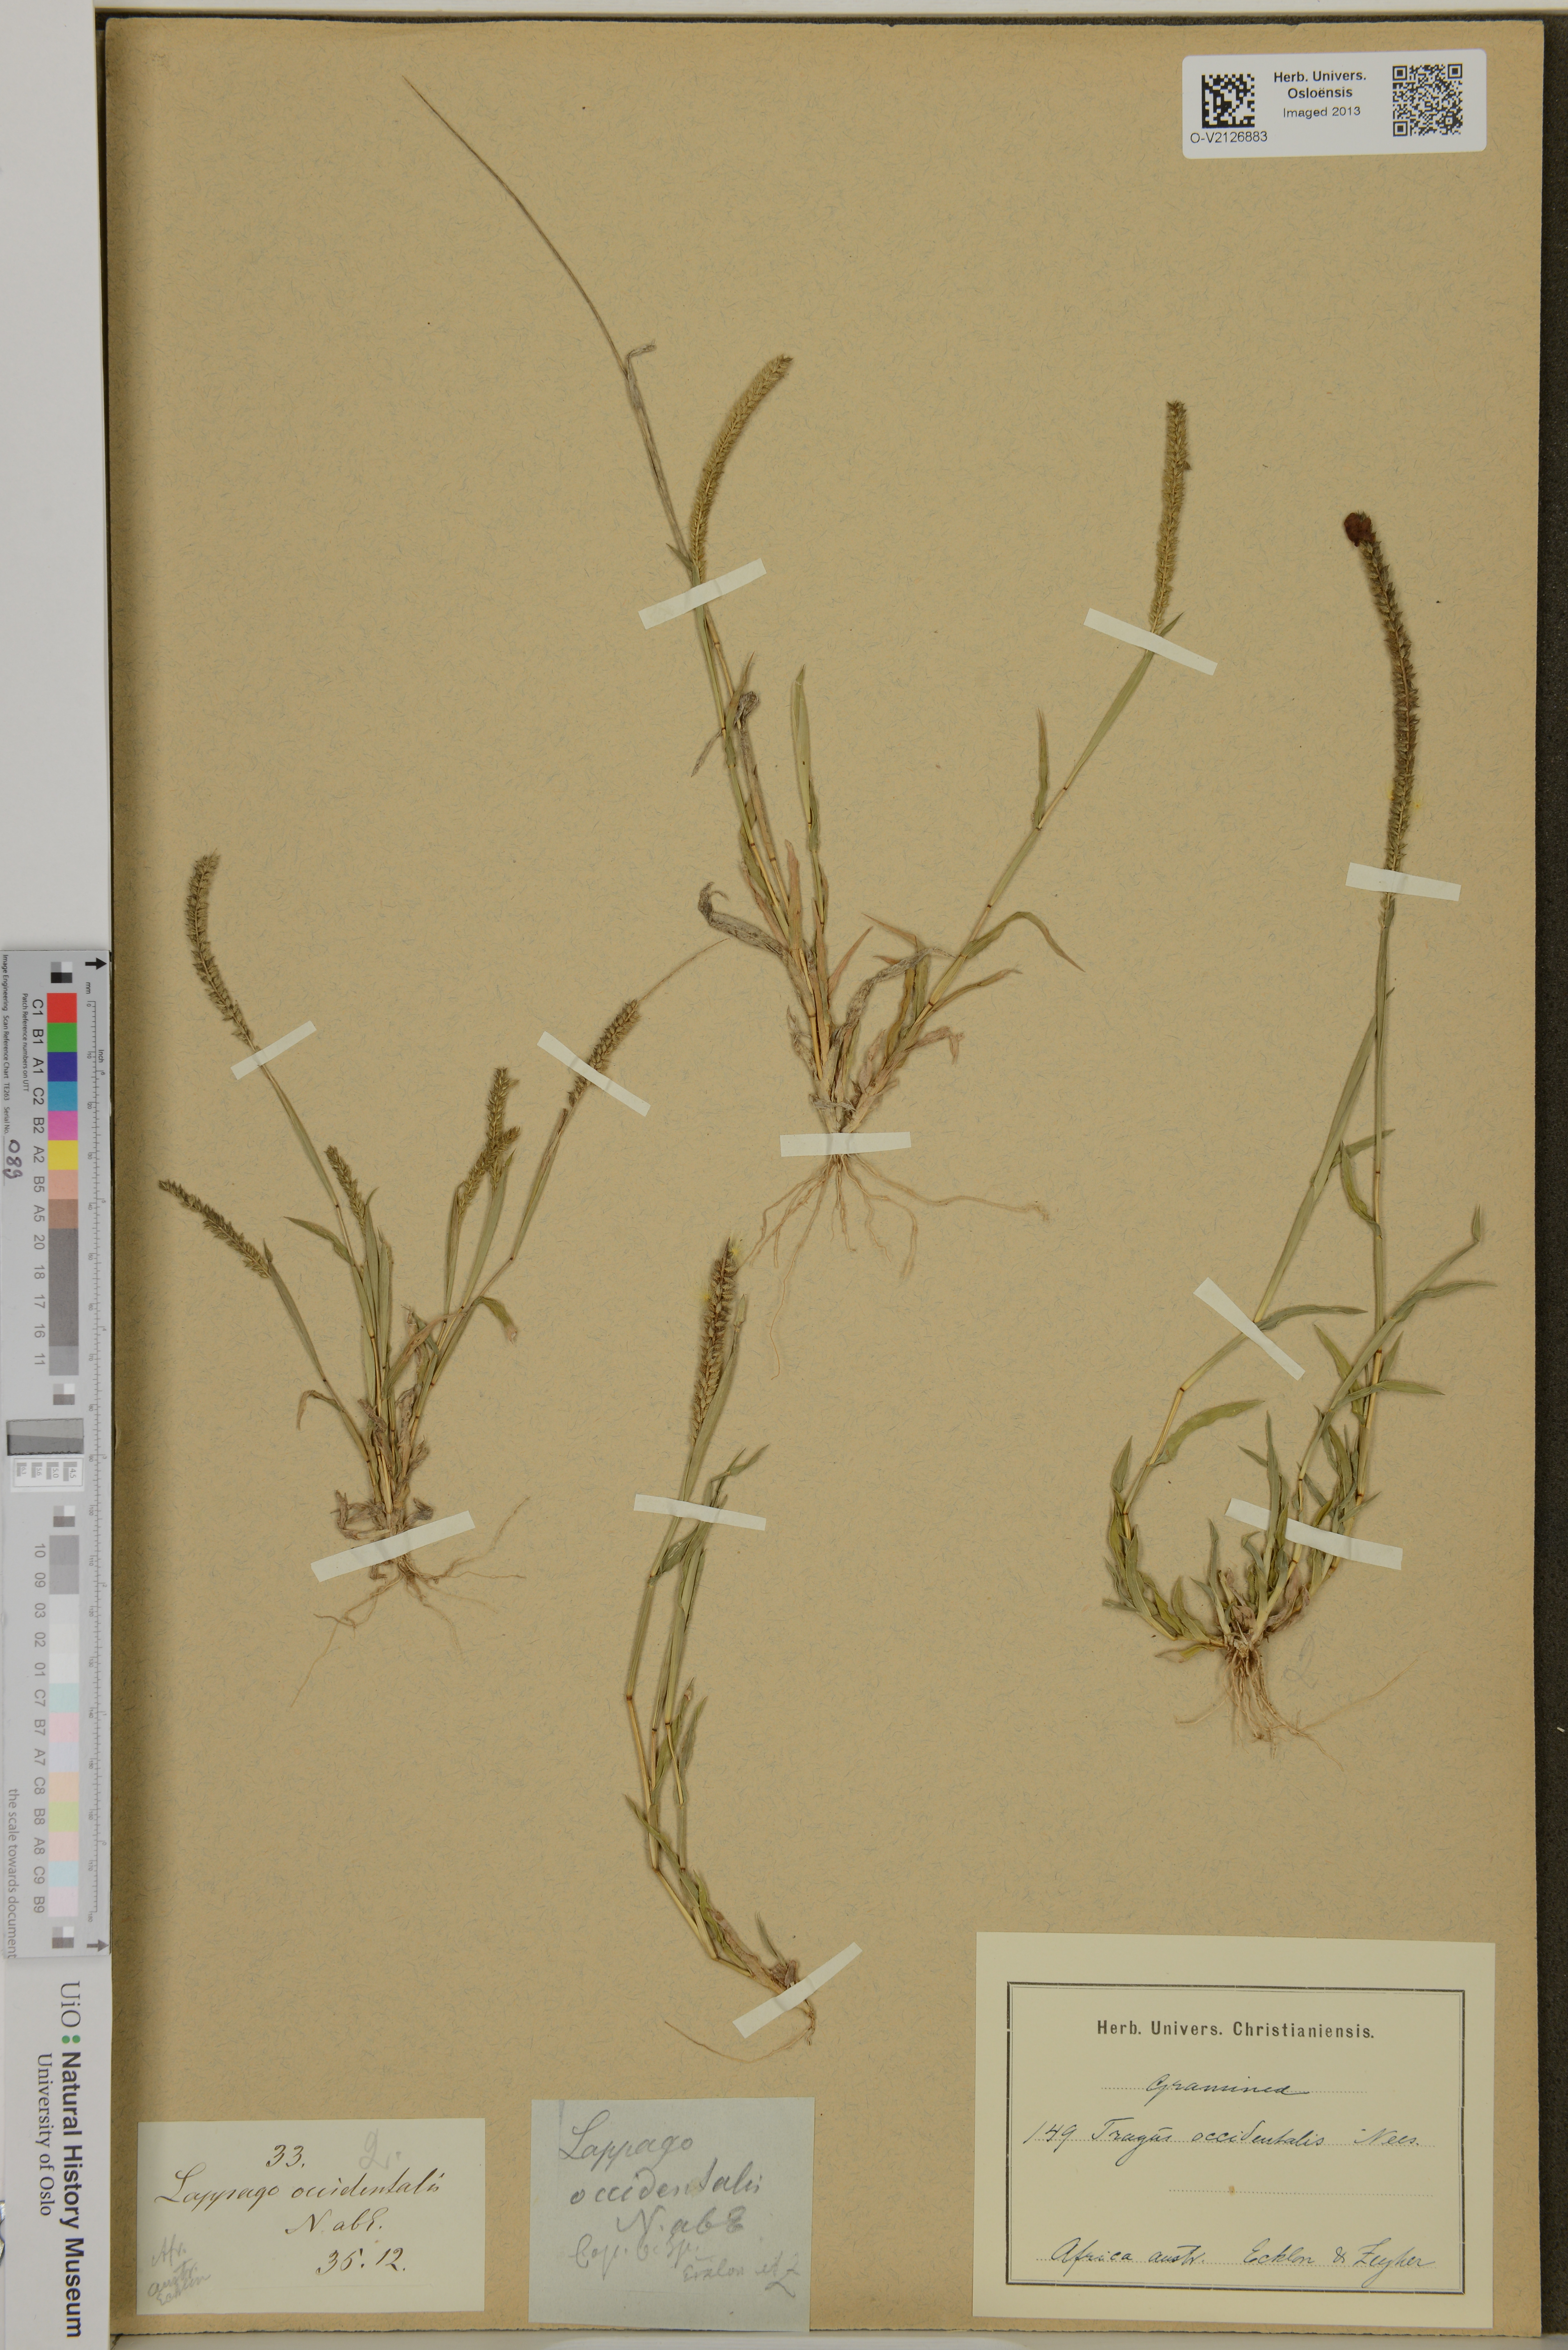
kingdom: Plantae
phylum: Tracheophyta
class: Liliopsida
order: Poales
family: Poaceae
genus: Tragus
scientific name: Tragus berteronianus
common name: African bur-grass
